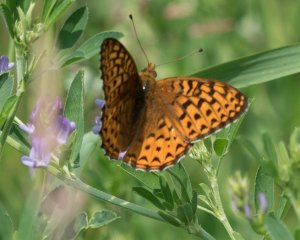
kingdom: Animalia
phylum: Arthropoda
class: Insecta
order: Lepidoptera
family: Nymphalidae
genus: Speyeria
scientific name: Speyeria atlantis
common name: Atlantis Fritillary
